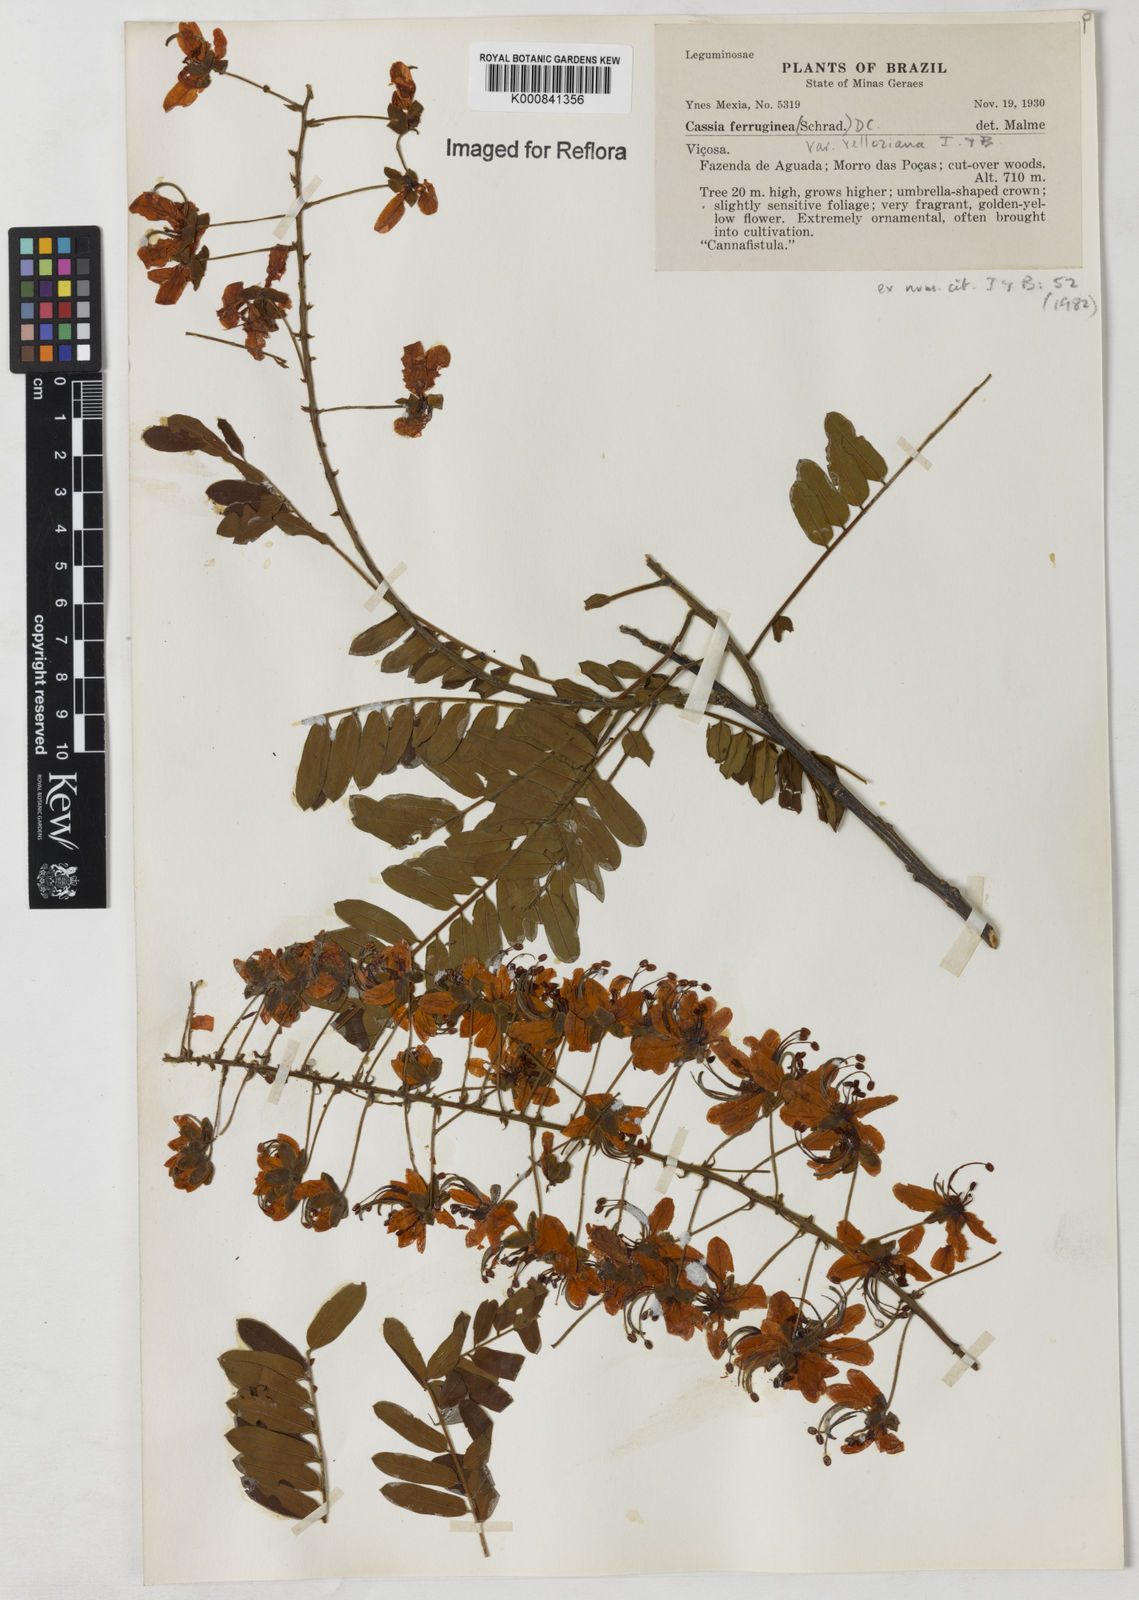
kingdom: Plantae
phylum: Tracheophyta
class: Magnoliopsida
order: Fabales
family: Fabaceae
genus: Cassia
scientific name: Cassia ferruginea
